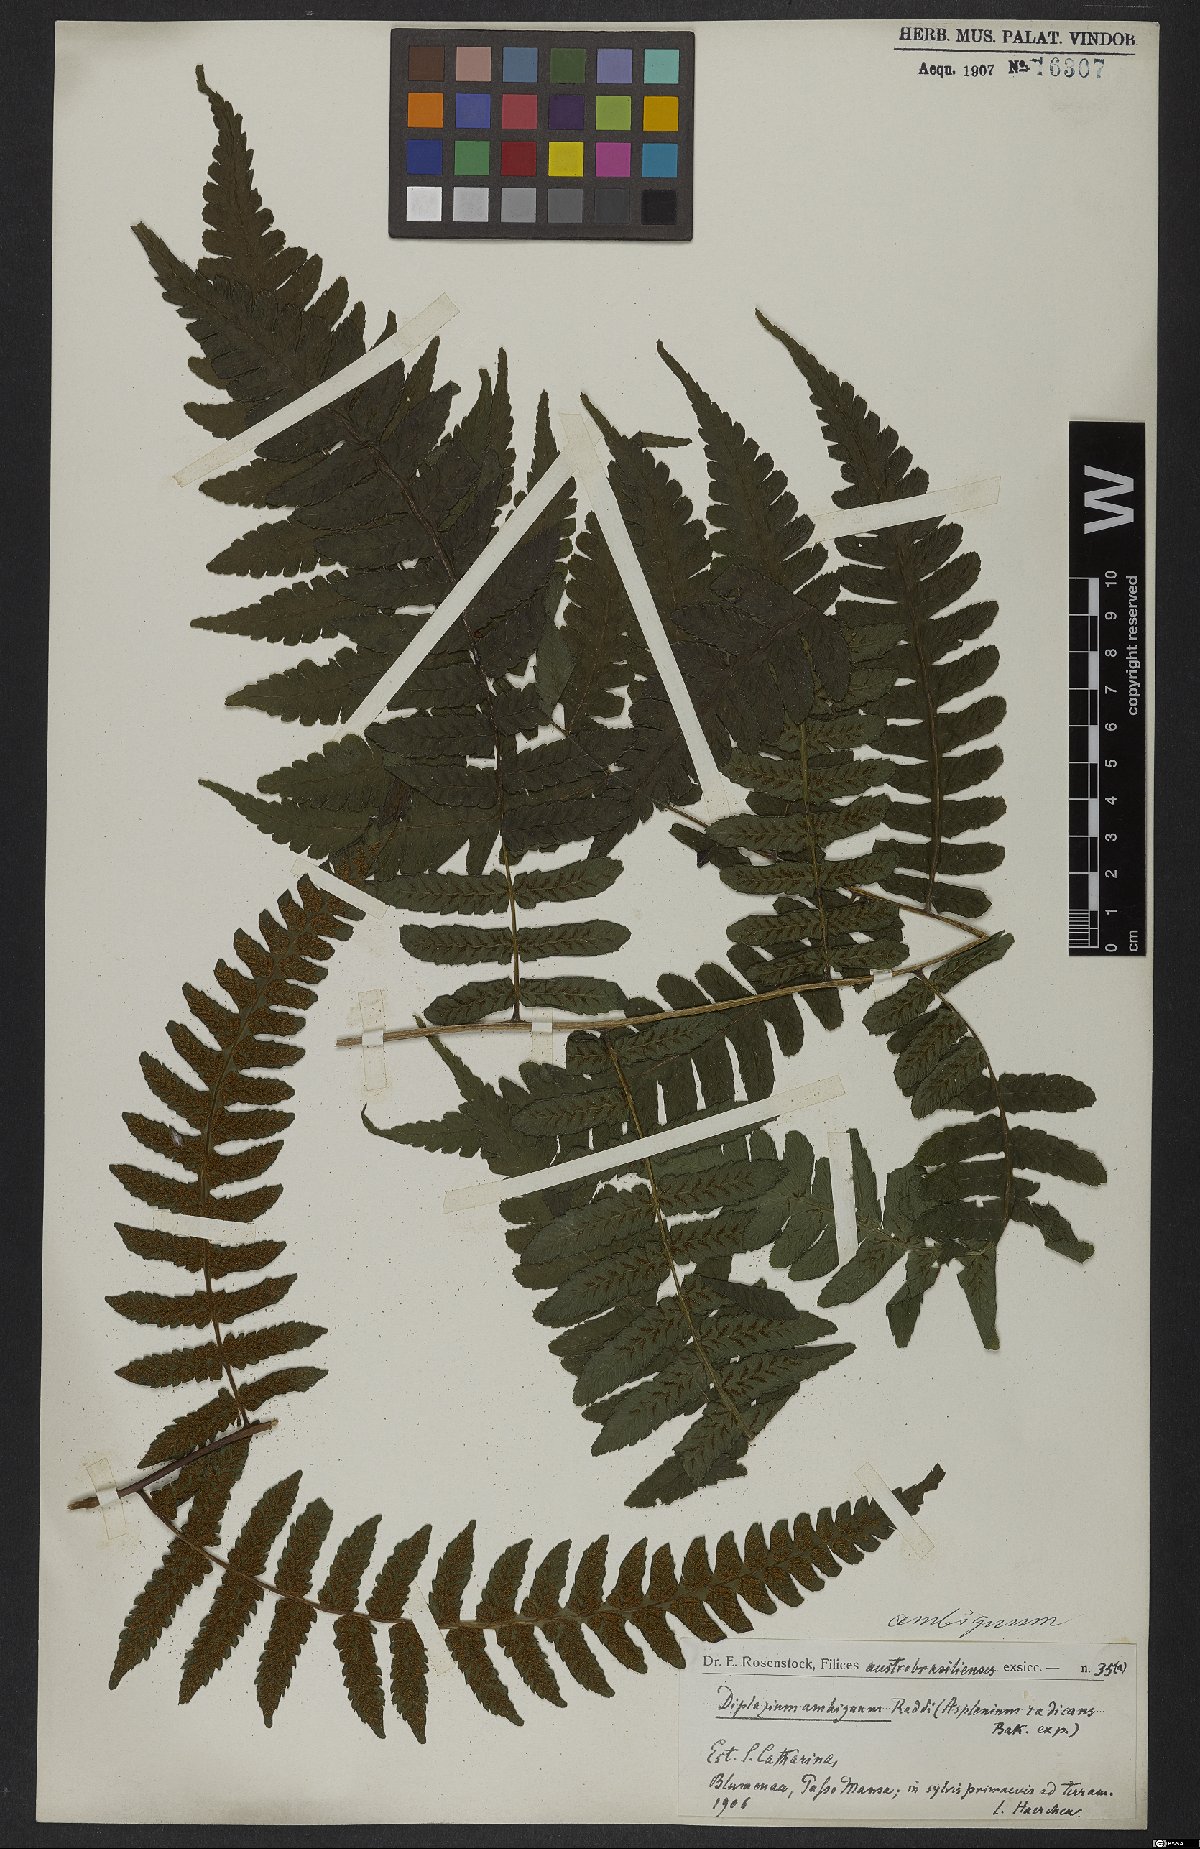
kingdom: Plantae
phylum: Tracheophyta
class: Polypodiopsida
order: Polypodiales
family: Athyriaceae
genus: Diplazium
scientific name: Diplazium ambiguum
